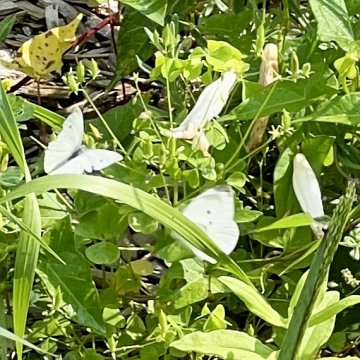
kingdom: Animalia
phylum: Arthropoda
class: Insecta
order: Lepidoptera
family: Pieridae
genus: Pieris
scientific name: Pieris rapae
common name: Cabbage White
